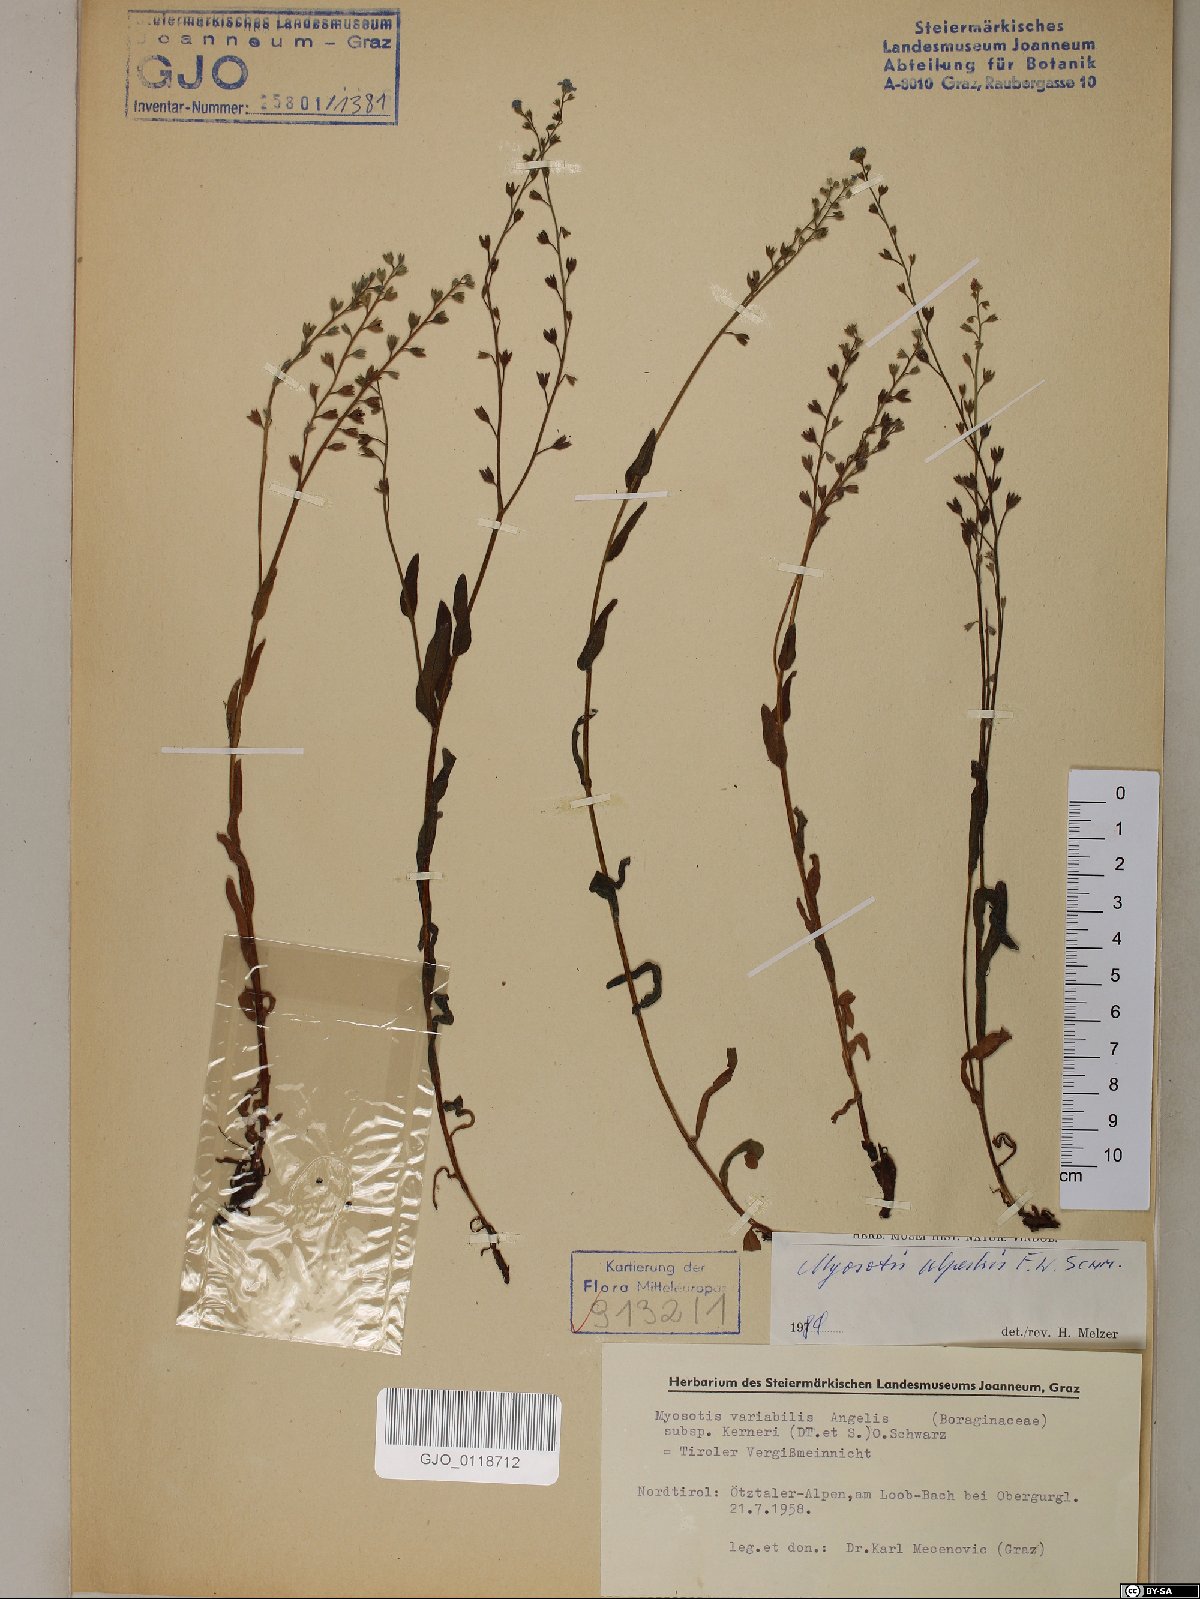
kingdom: Plantae
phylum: Tracheophyta
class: Magnoliopsida
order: Boraginales
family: Boraginaceae
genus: Myosotis
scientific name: Myosotis alpestris
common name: Alpine forget-me-not
